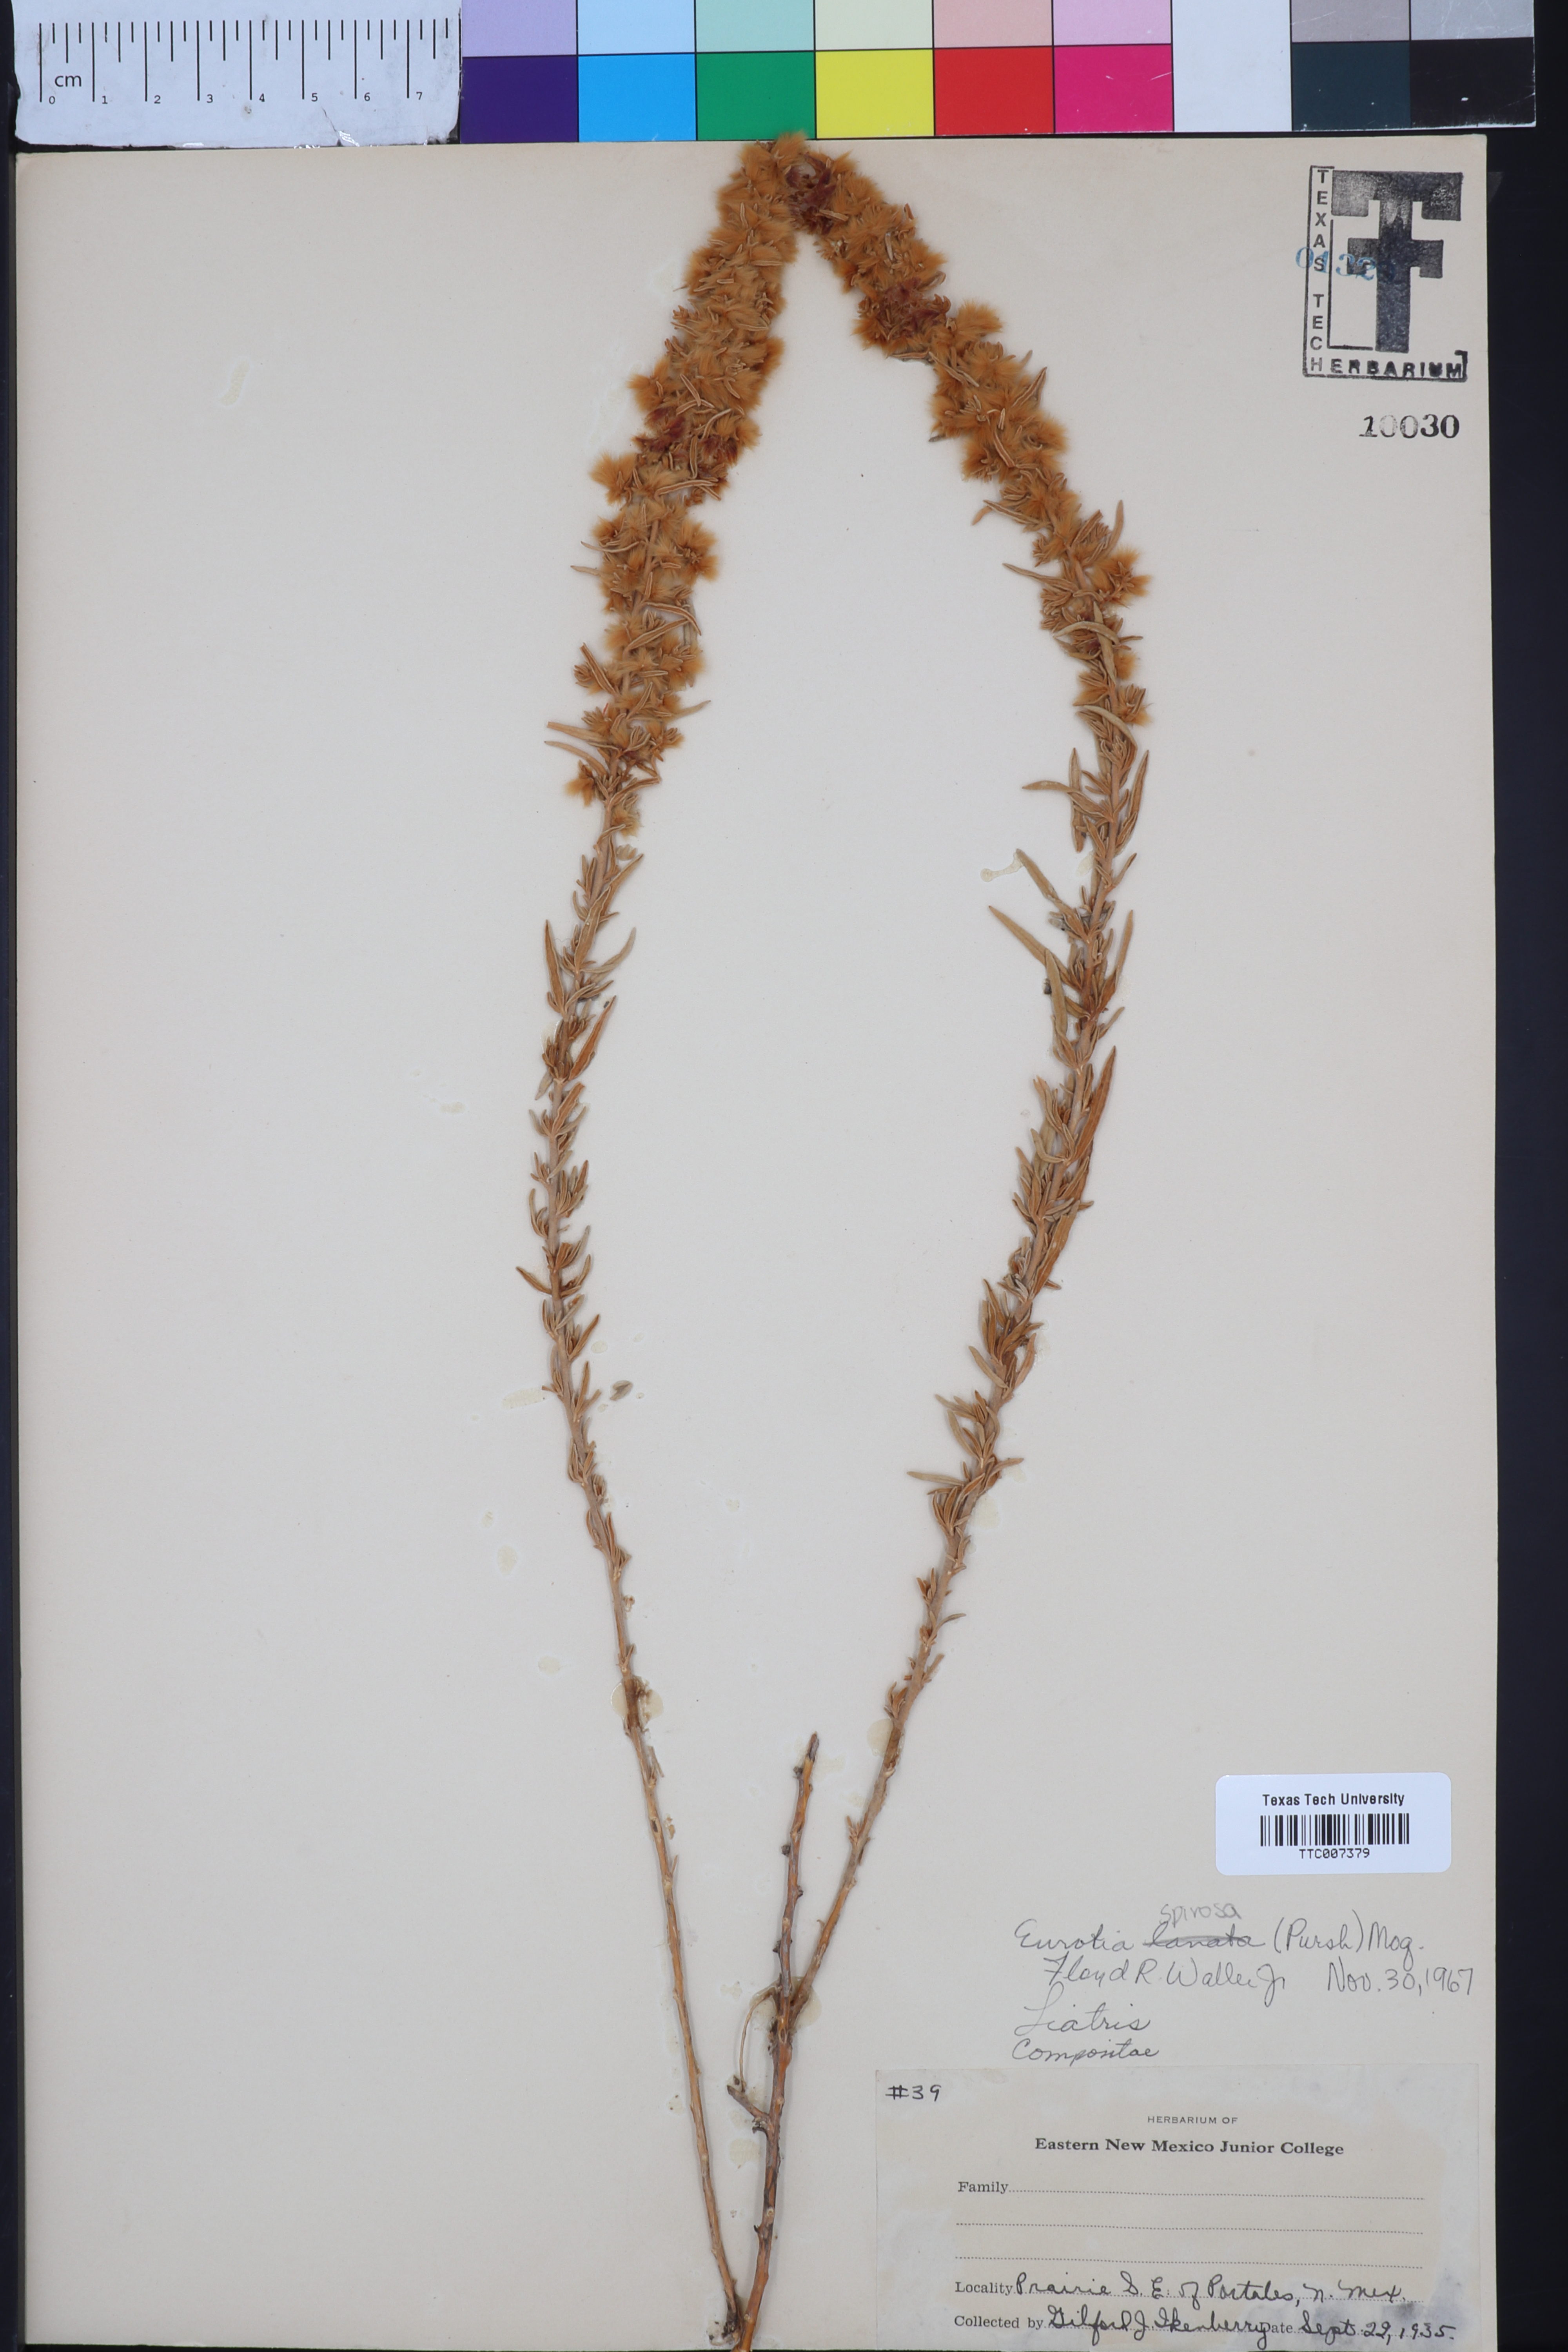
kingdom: Plantae
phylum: Tracheophyta
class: Magnoliopsida
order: Caryophyllales
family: Amaranthaceae
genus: Krascheninnikovia
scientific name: Krascheninnikovia lanata
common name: Winterfat
